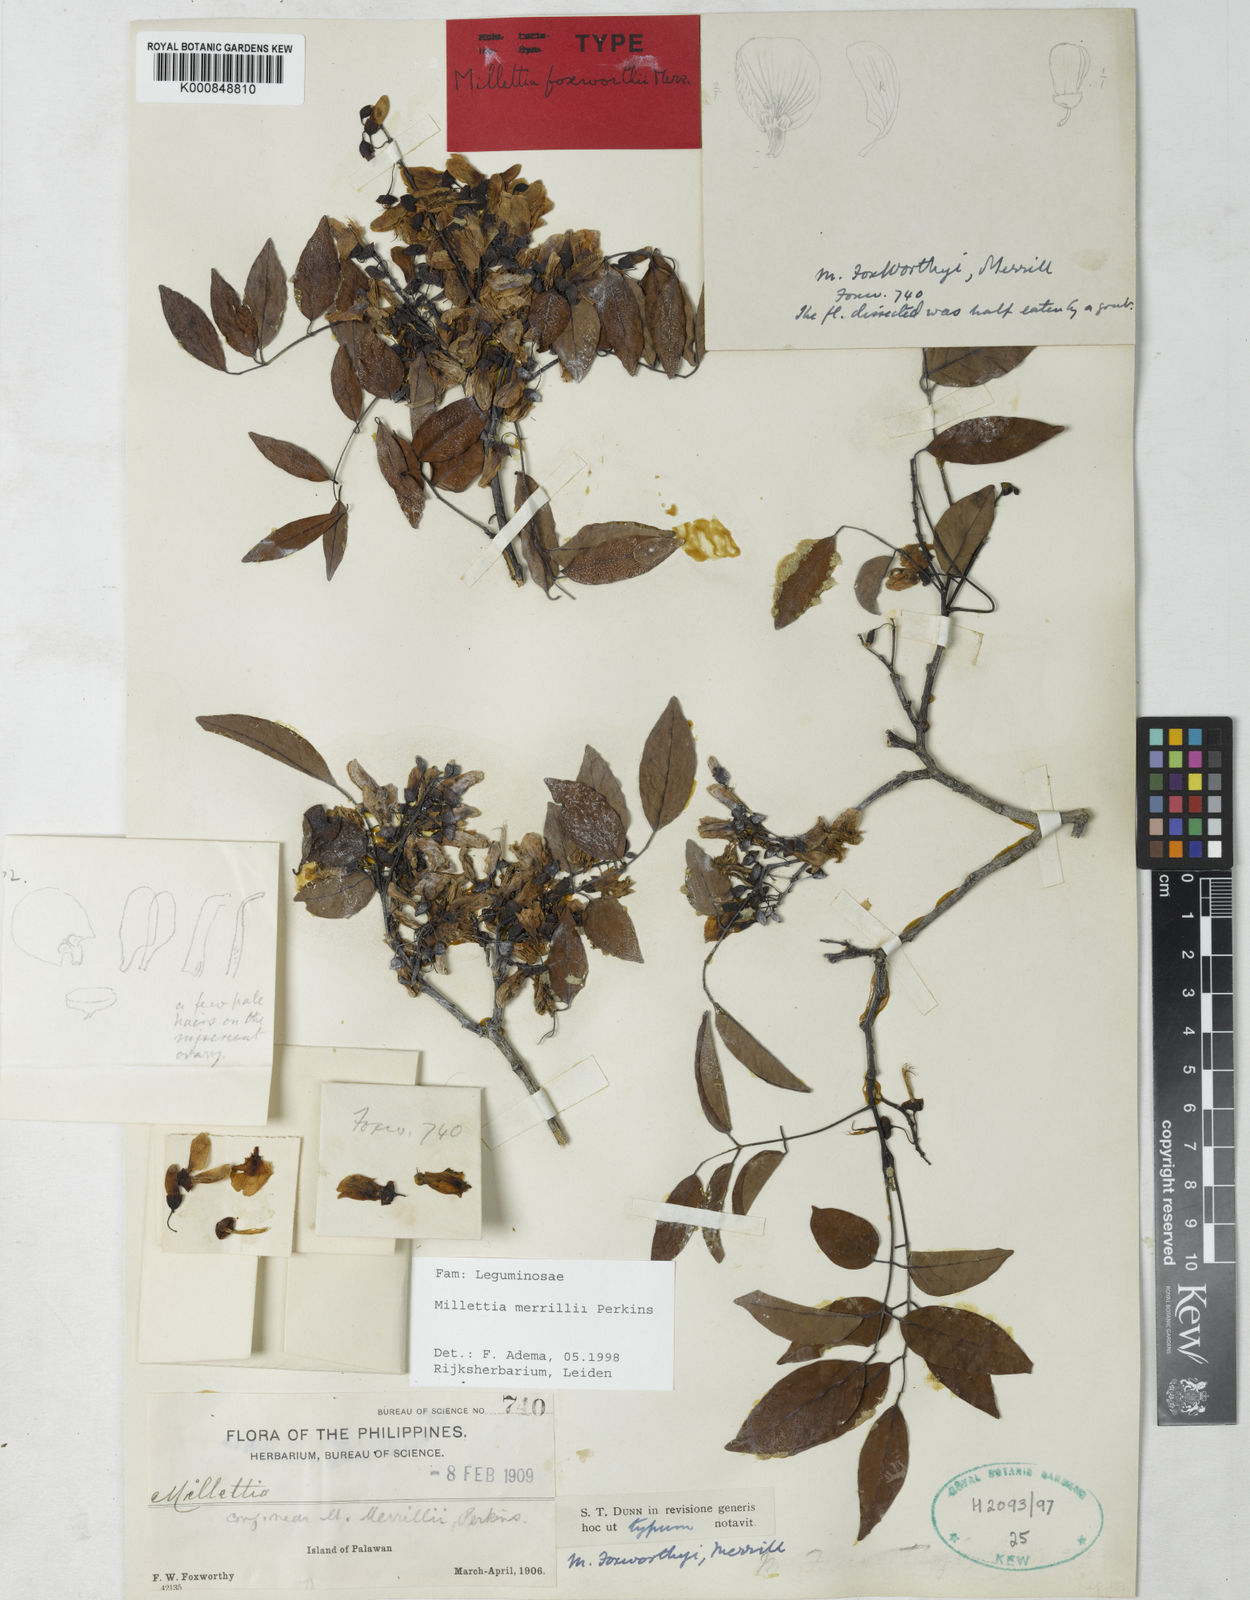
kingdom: Plantae
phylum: Tracheophyta
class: Magnoliopsida
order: Fabales
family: Fabaceae
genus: Millettia
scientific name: Millettia merrillii
